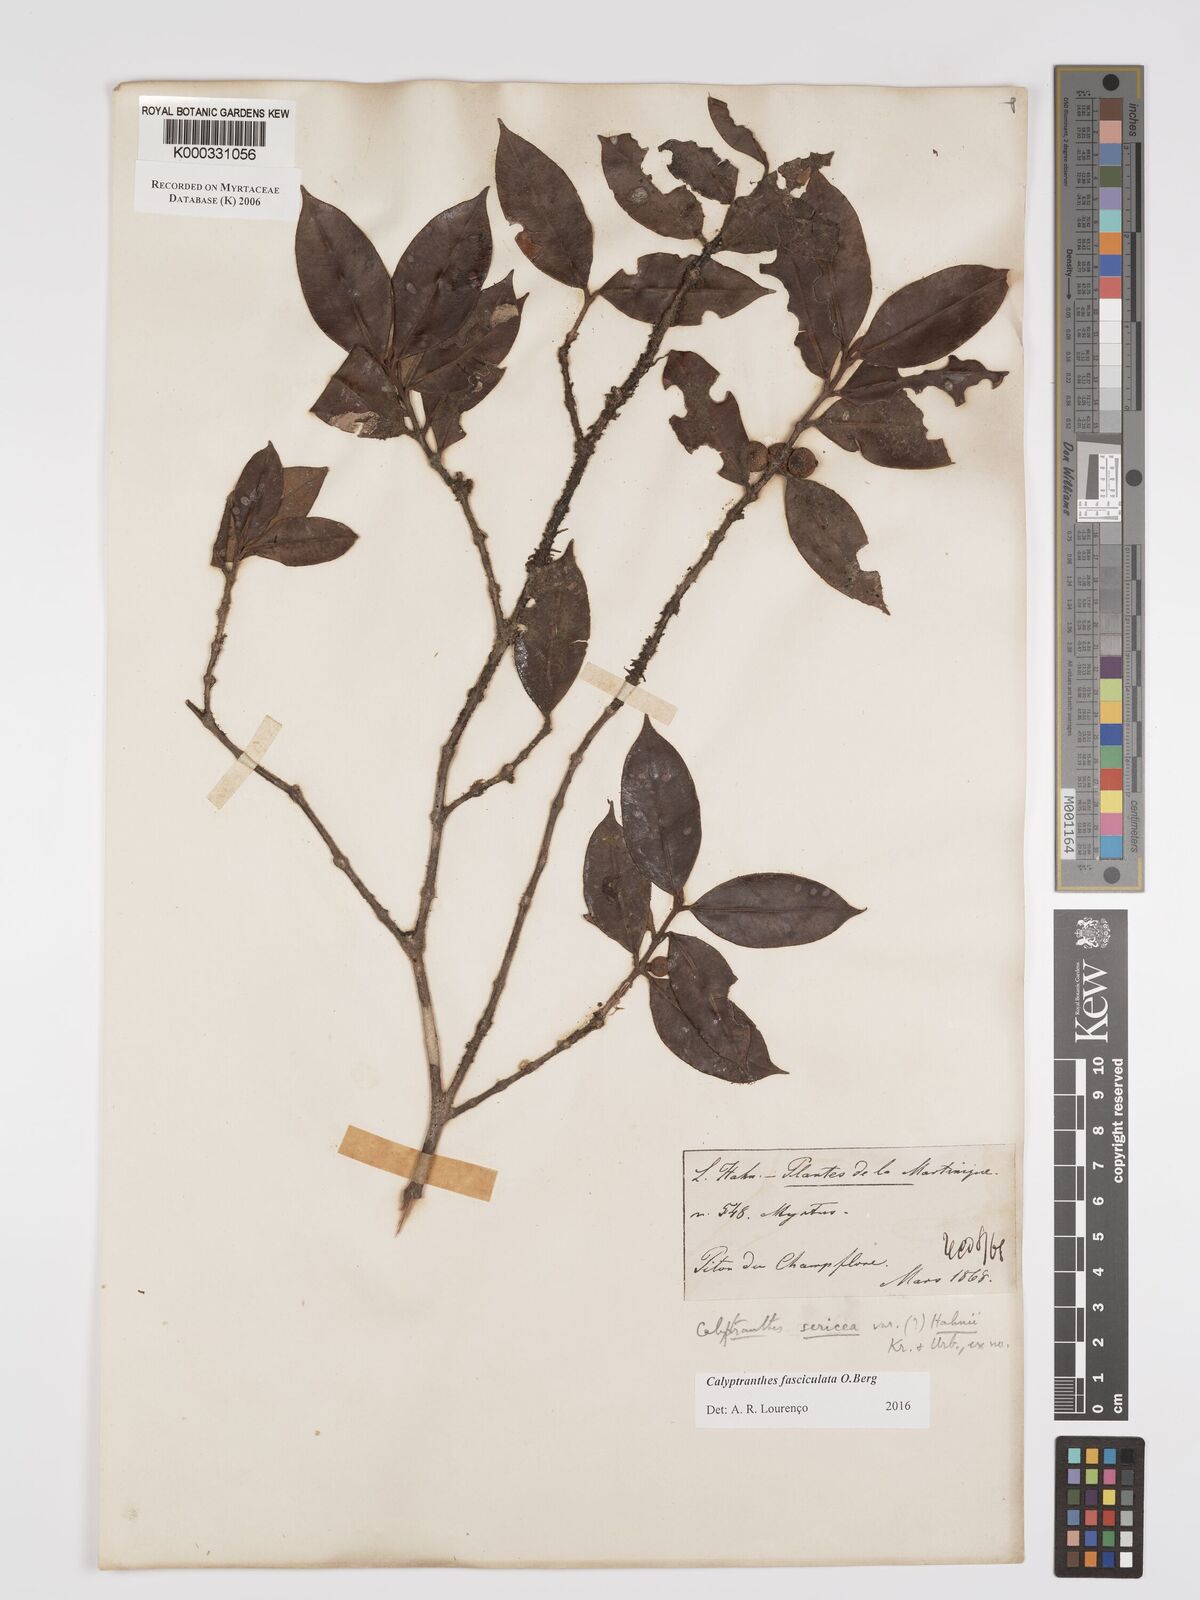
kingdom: Plantae
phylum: Tracheophyta
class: Magnoliopsida
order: Myrtales
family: Myrtaceae
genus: Myrcia
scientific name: Myrcia fasciculata
